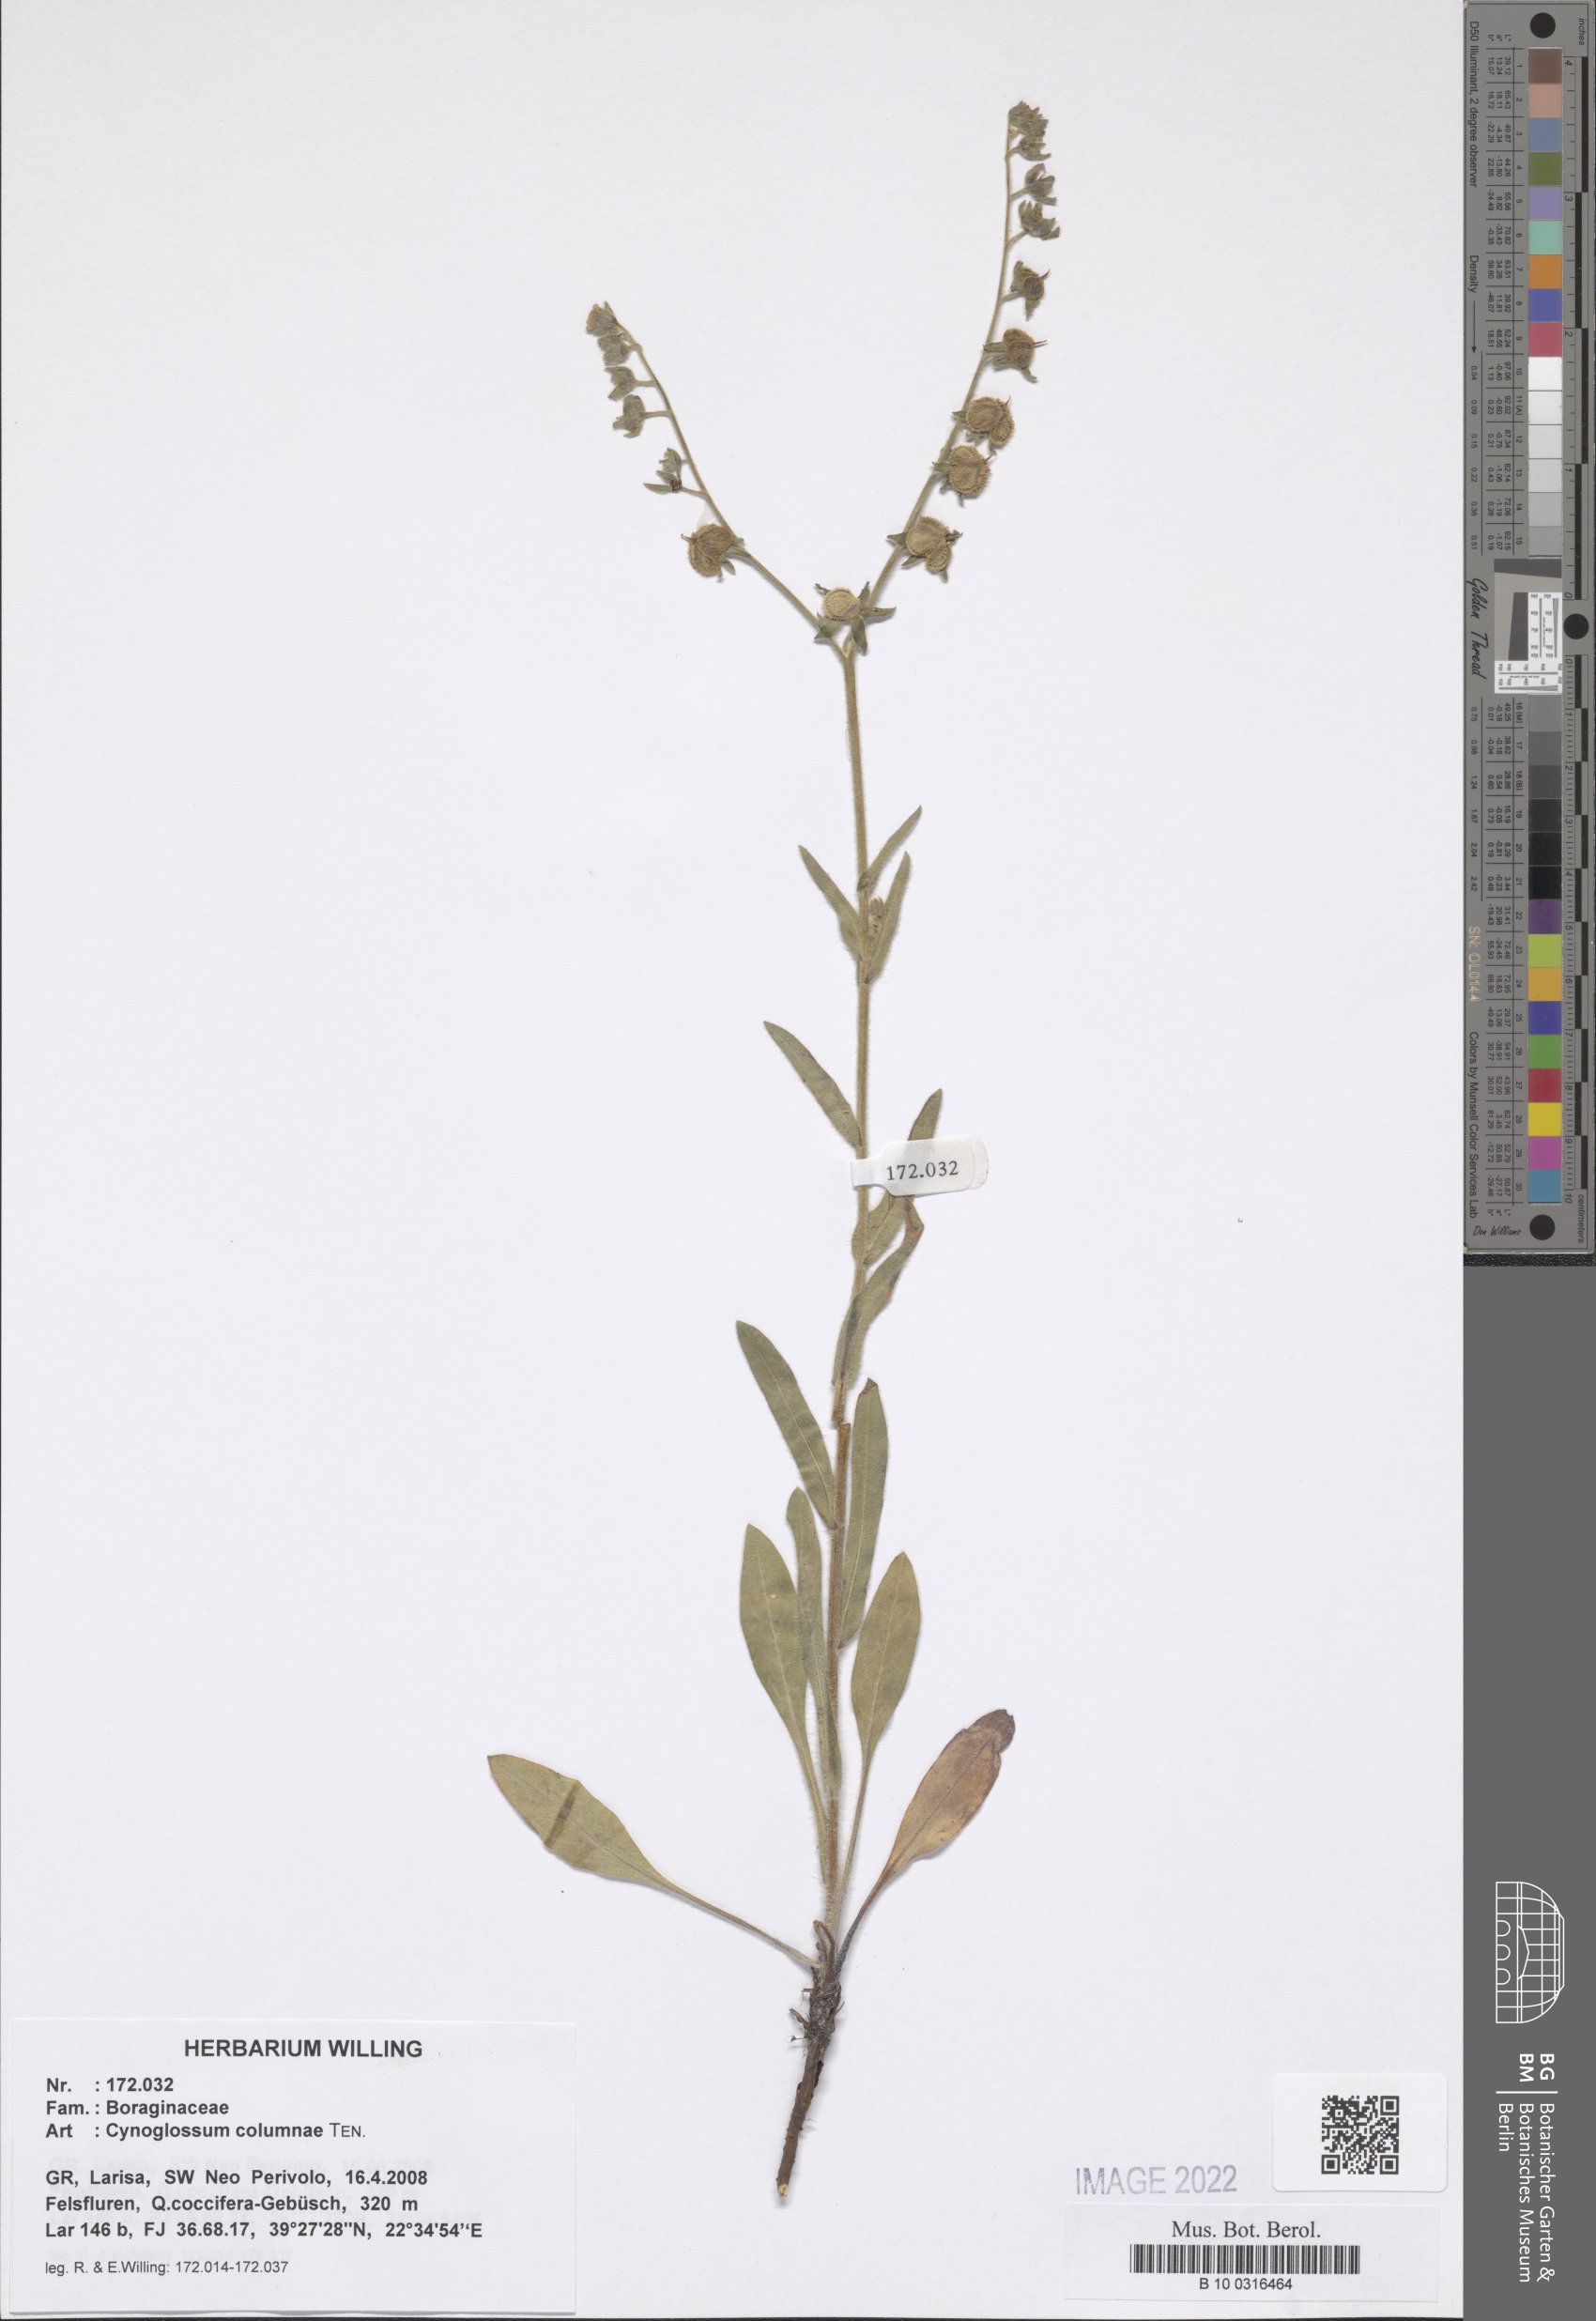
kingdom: Plantae
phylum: Tracheophyta
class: Magnoliopsida
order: Boraginales
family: Boraginaceae
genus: Rindera
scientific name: Rindera columnae
